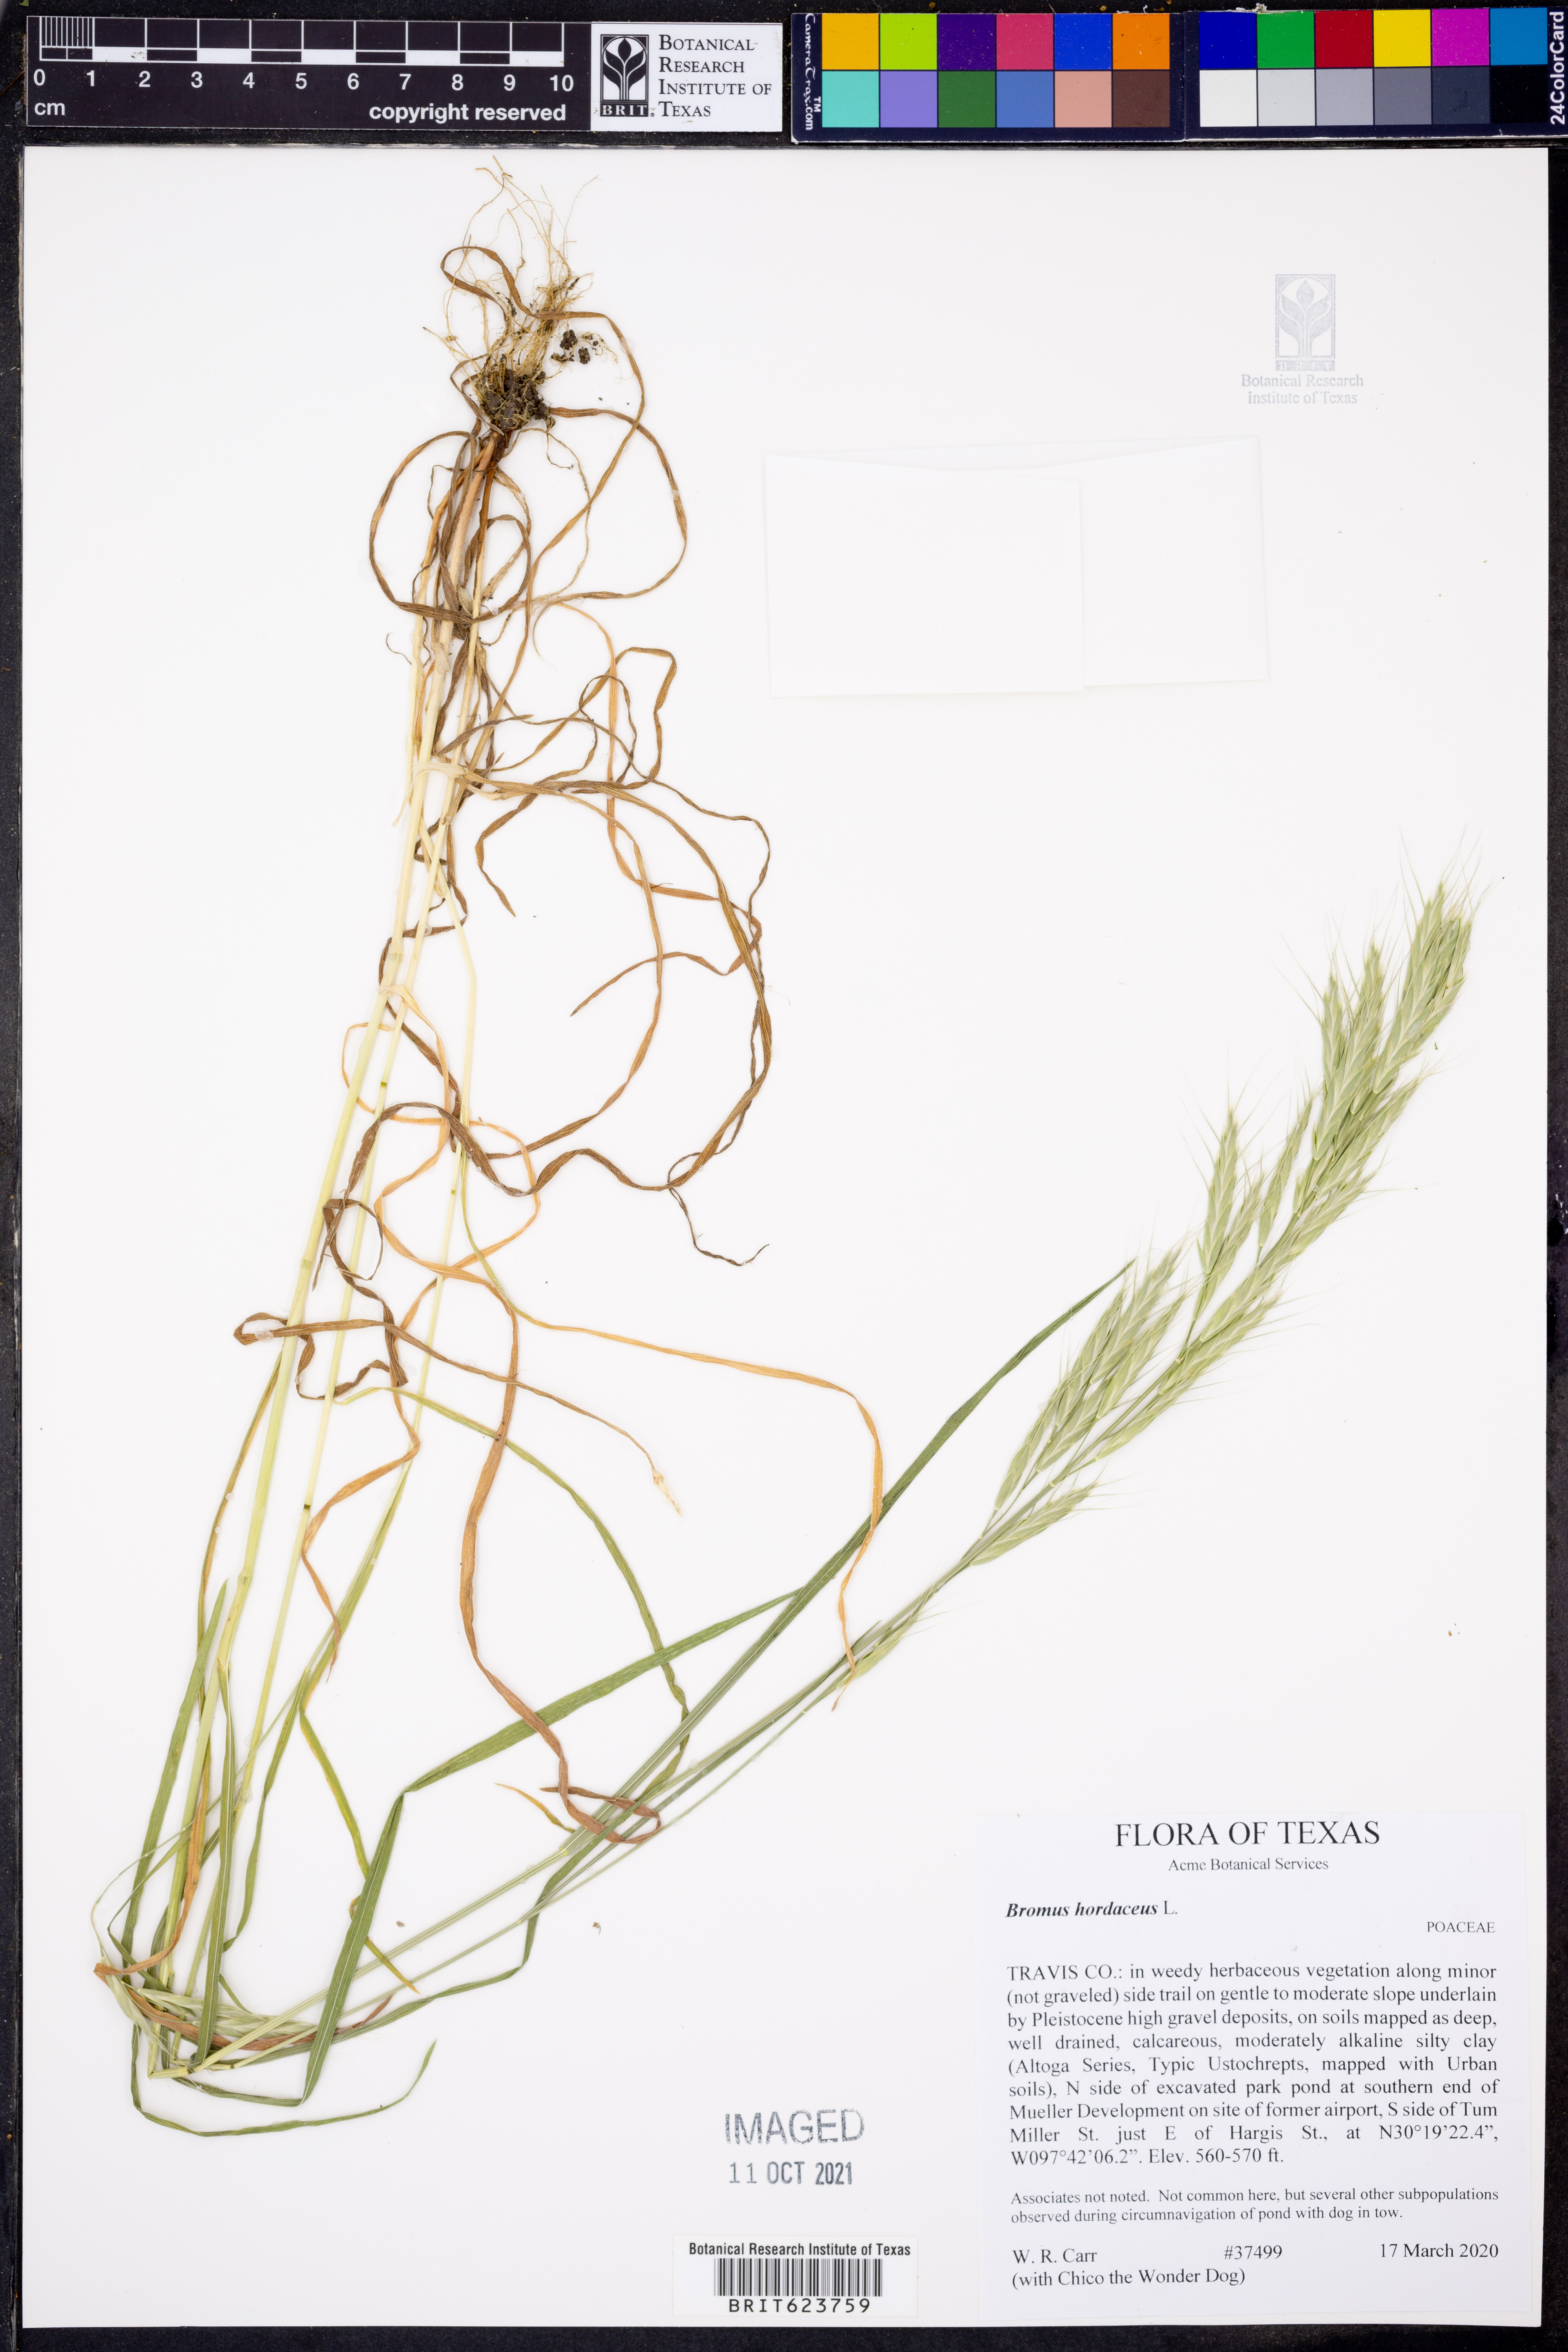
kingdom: Plantae
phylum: Tracheophyta
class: Liliopsida
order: Poales
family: Poaceae
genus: Bromus
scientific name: Bromus hordeaceus
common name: Soft brome
